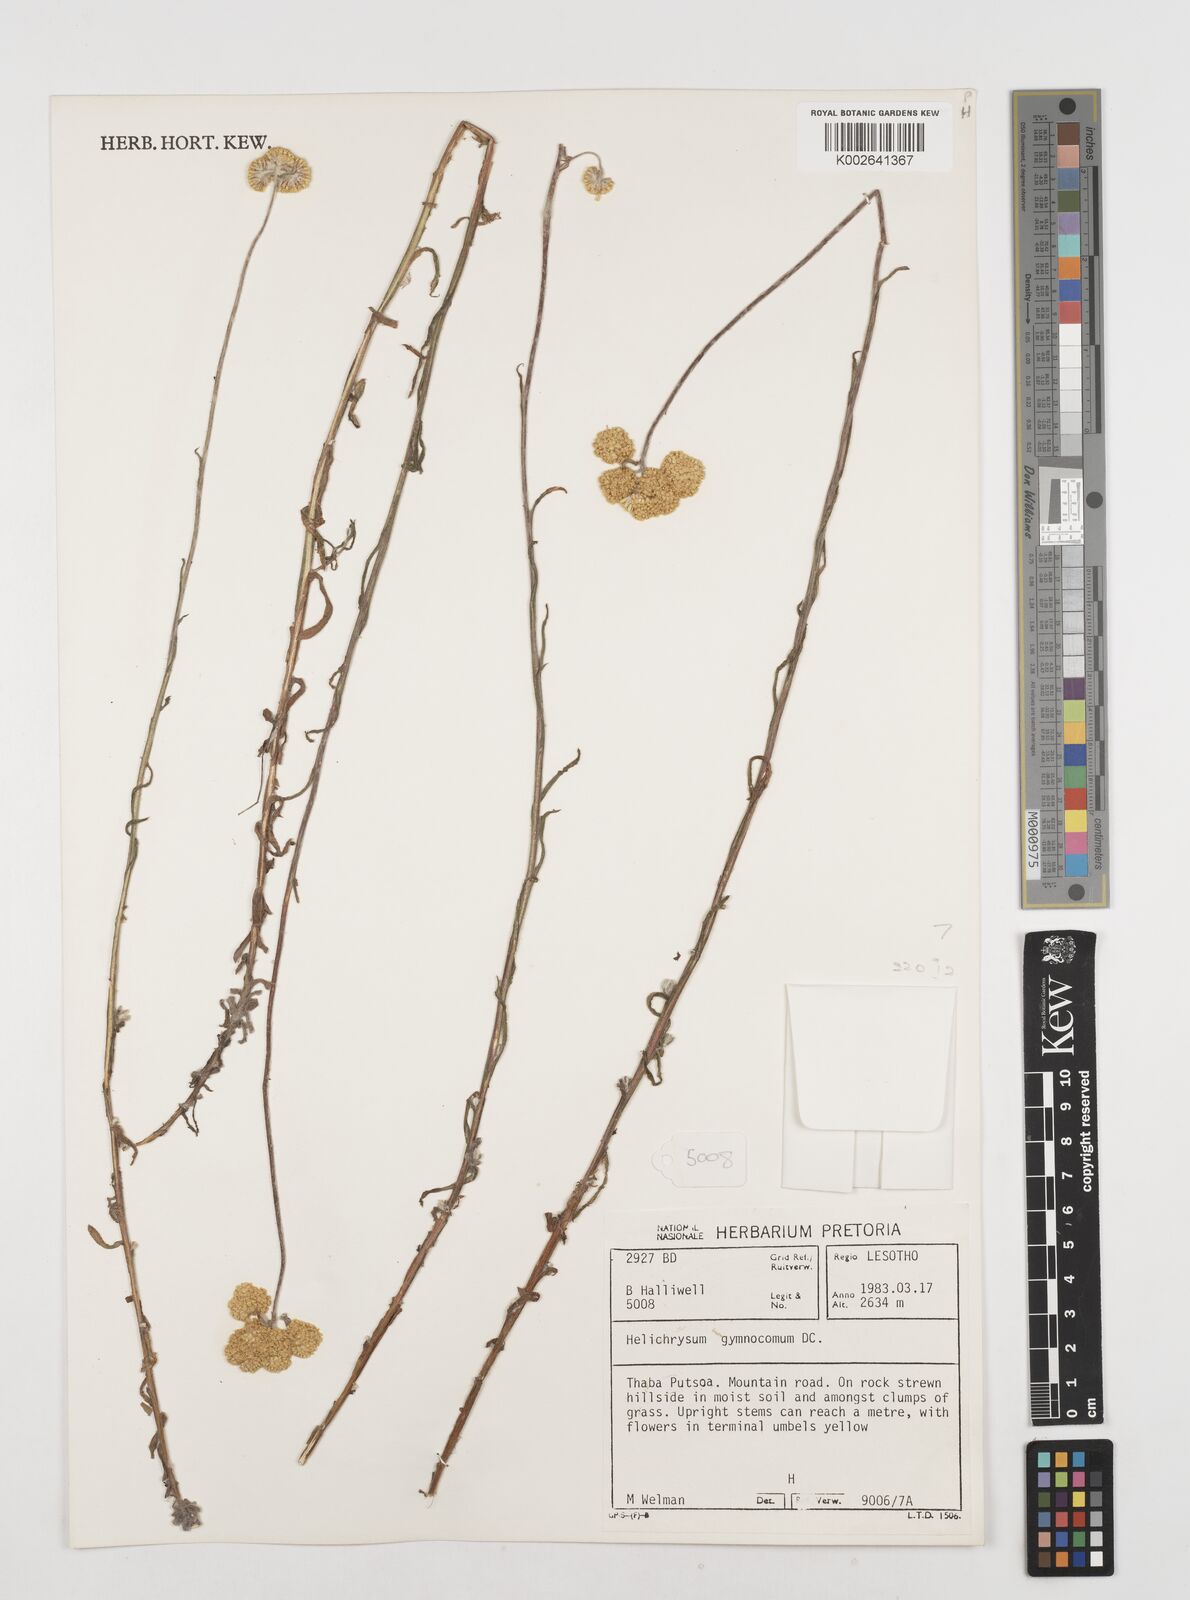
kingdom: Plantae
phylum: Tracheophyta
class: Magnoliopsida
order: Asterales
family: Asteraceae
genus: Helichrysum
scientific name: Helichrysum odoratissimum
